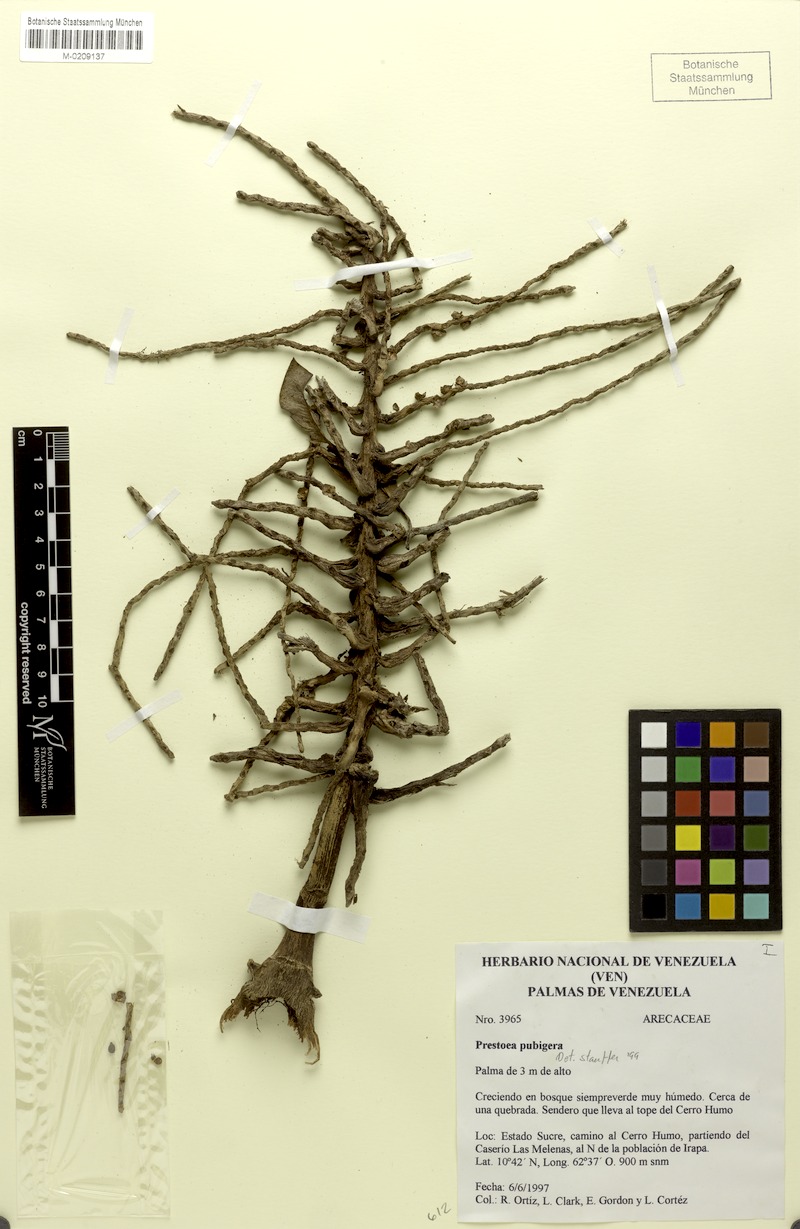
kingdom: Plantae
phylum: Tracheophyta
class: Liliopsida
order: Arecales
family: Arecaceae
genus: Prestoea
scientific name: Prestoea pubigera
